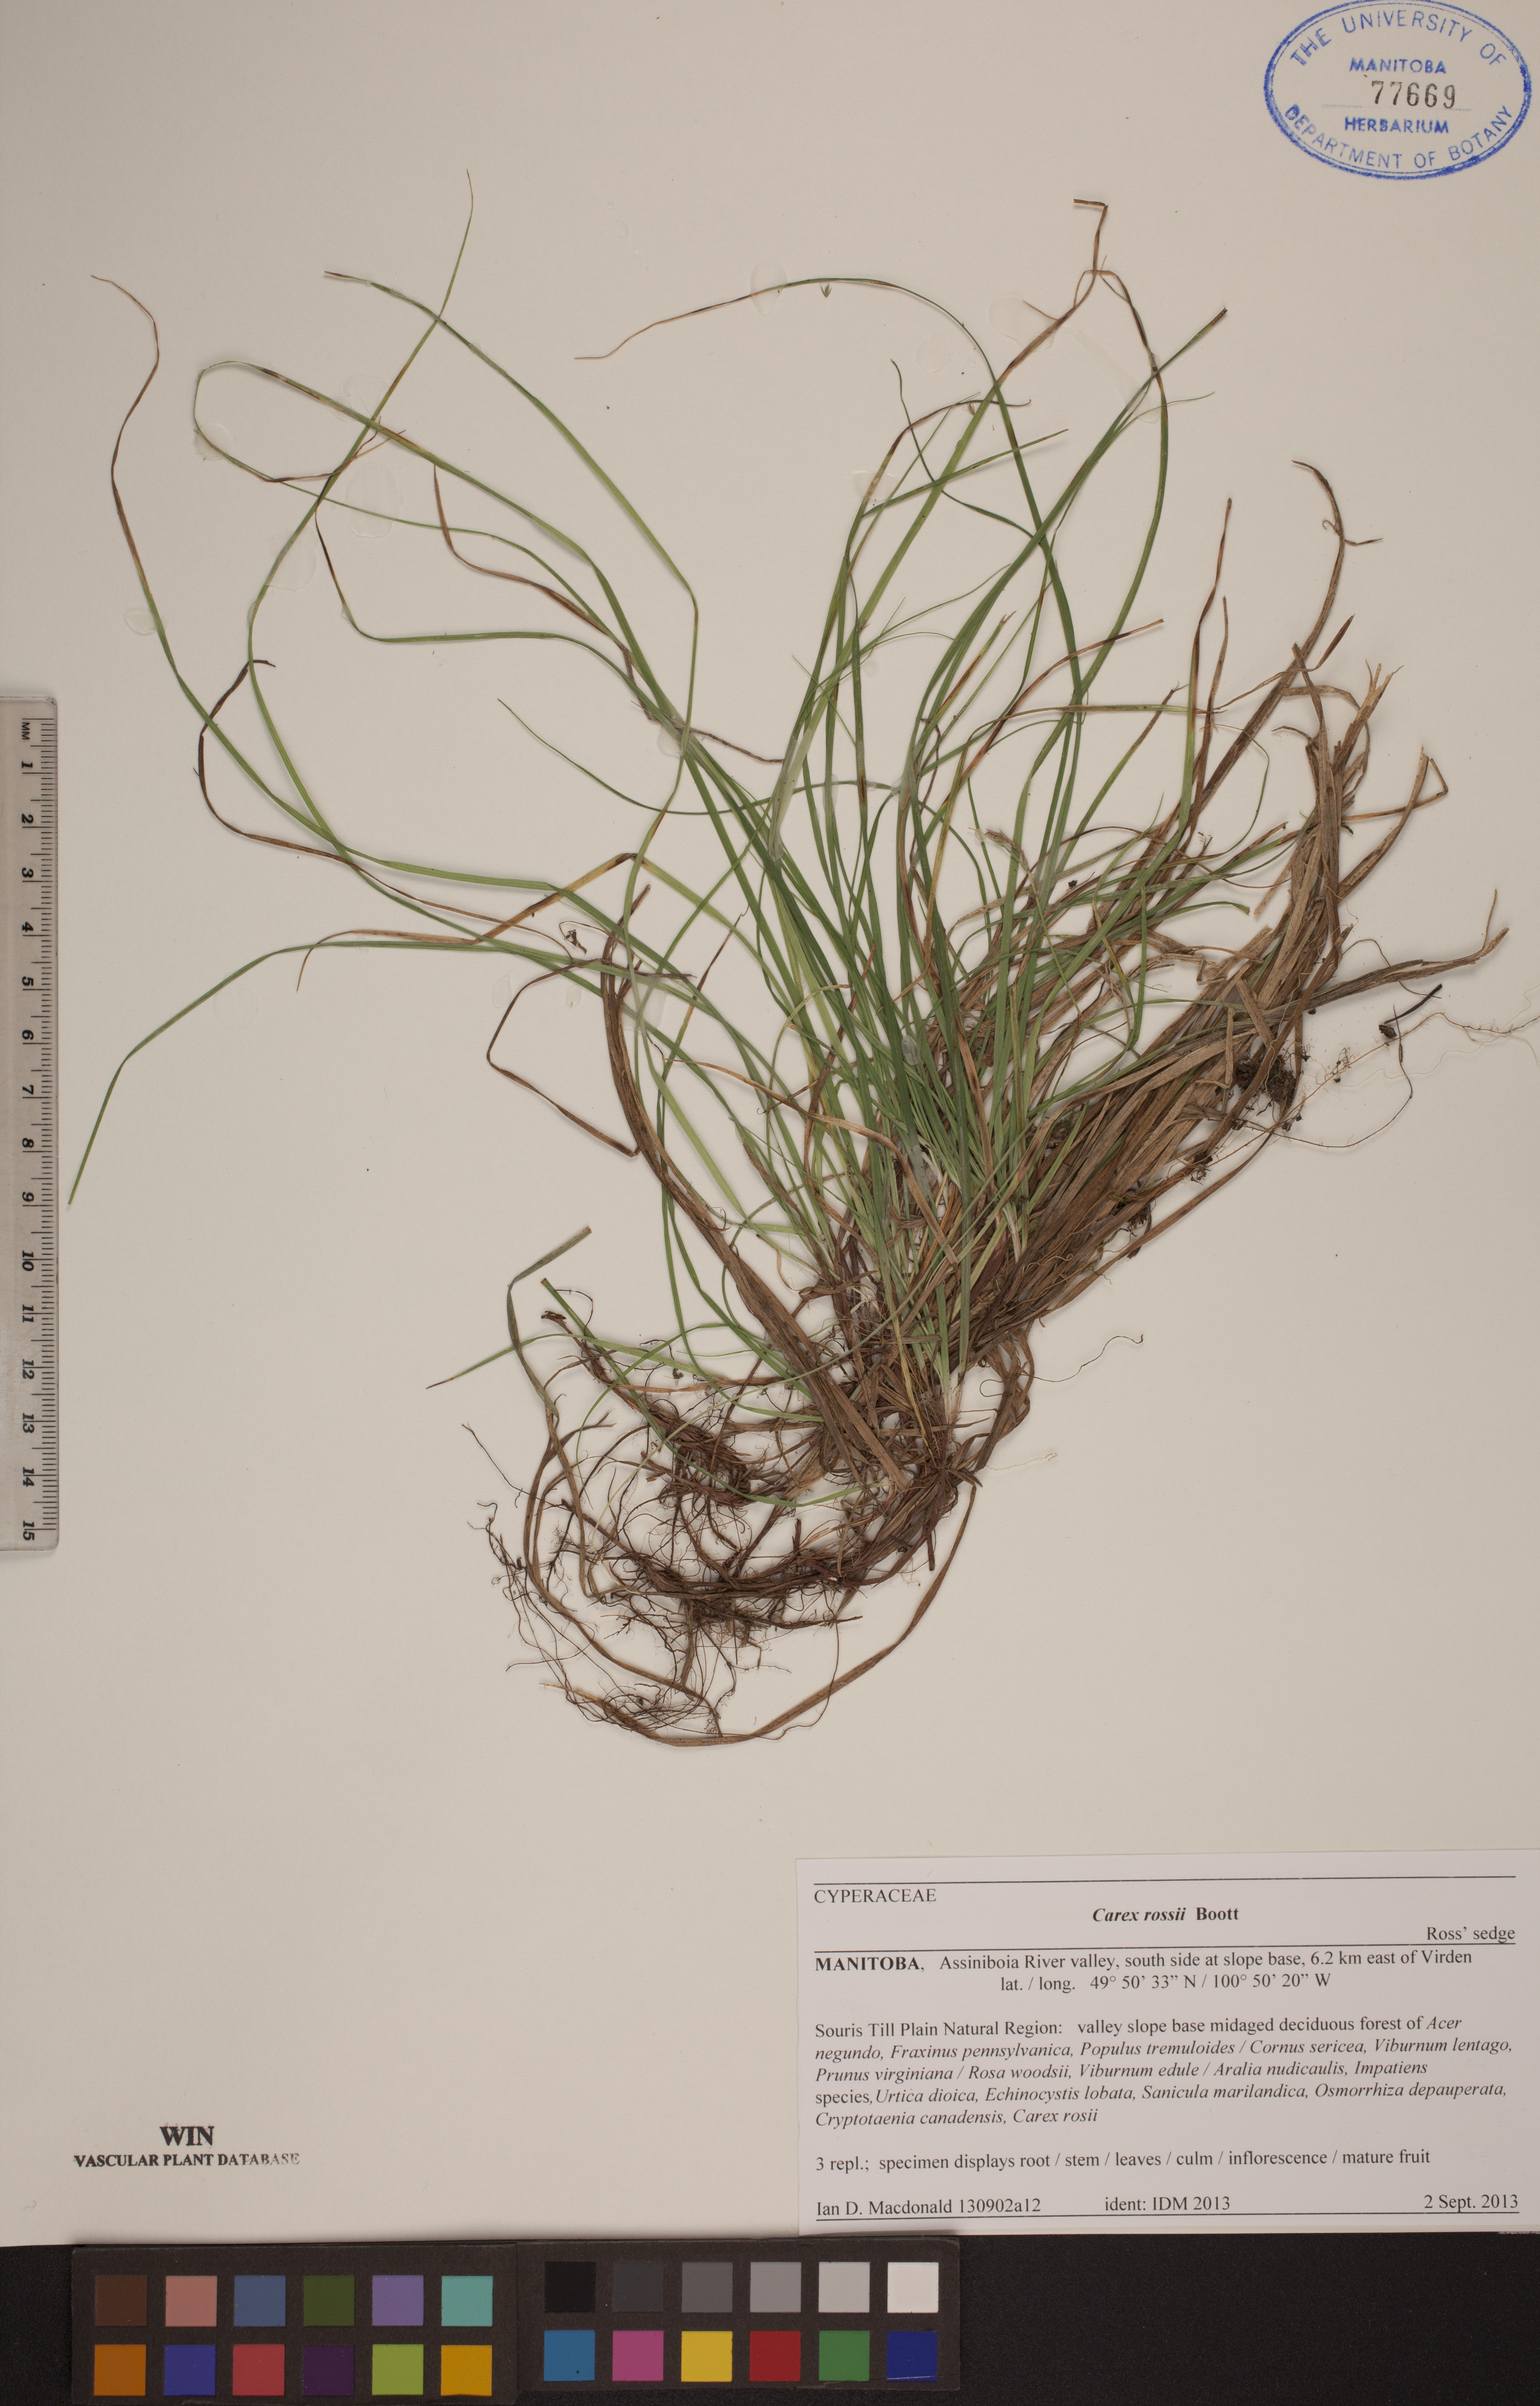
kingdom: Plantae
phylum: Tracheophyta
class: Liliopsida
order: Poales
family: Cyperaceae
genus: Carex
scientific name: Carex rossii
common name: Ross' sedge
